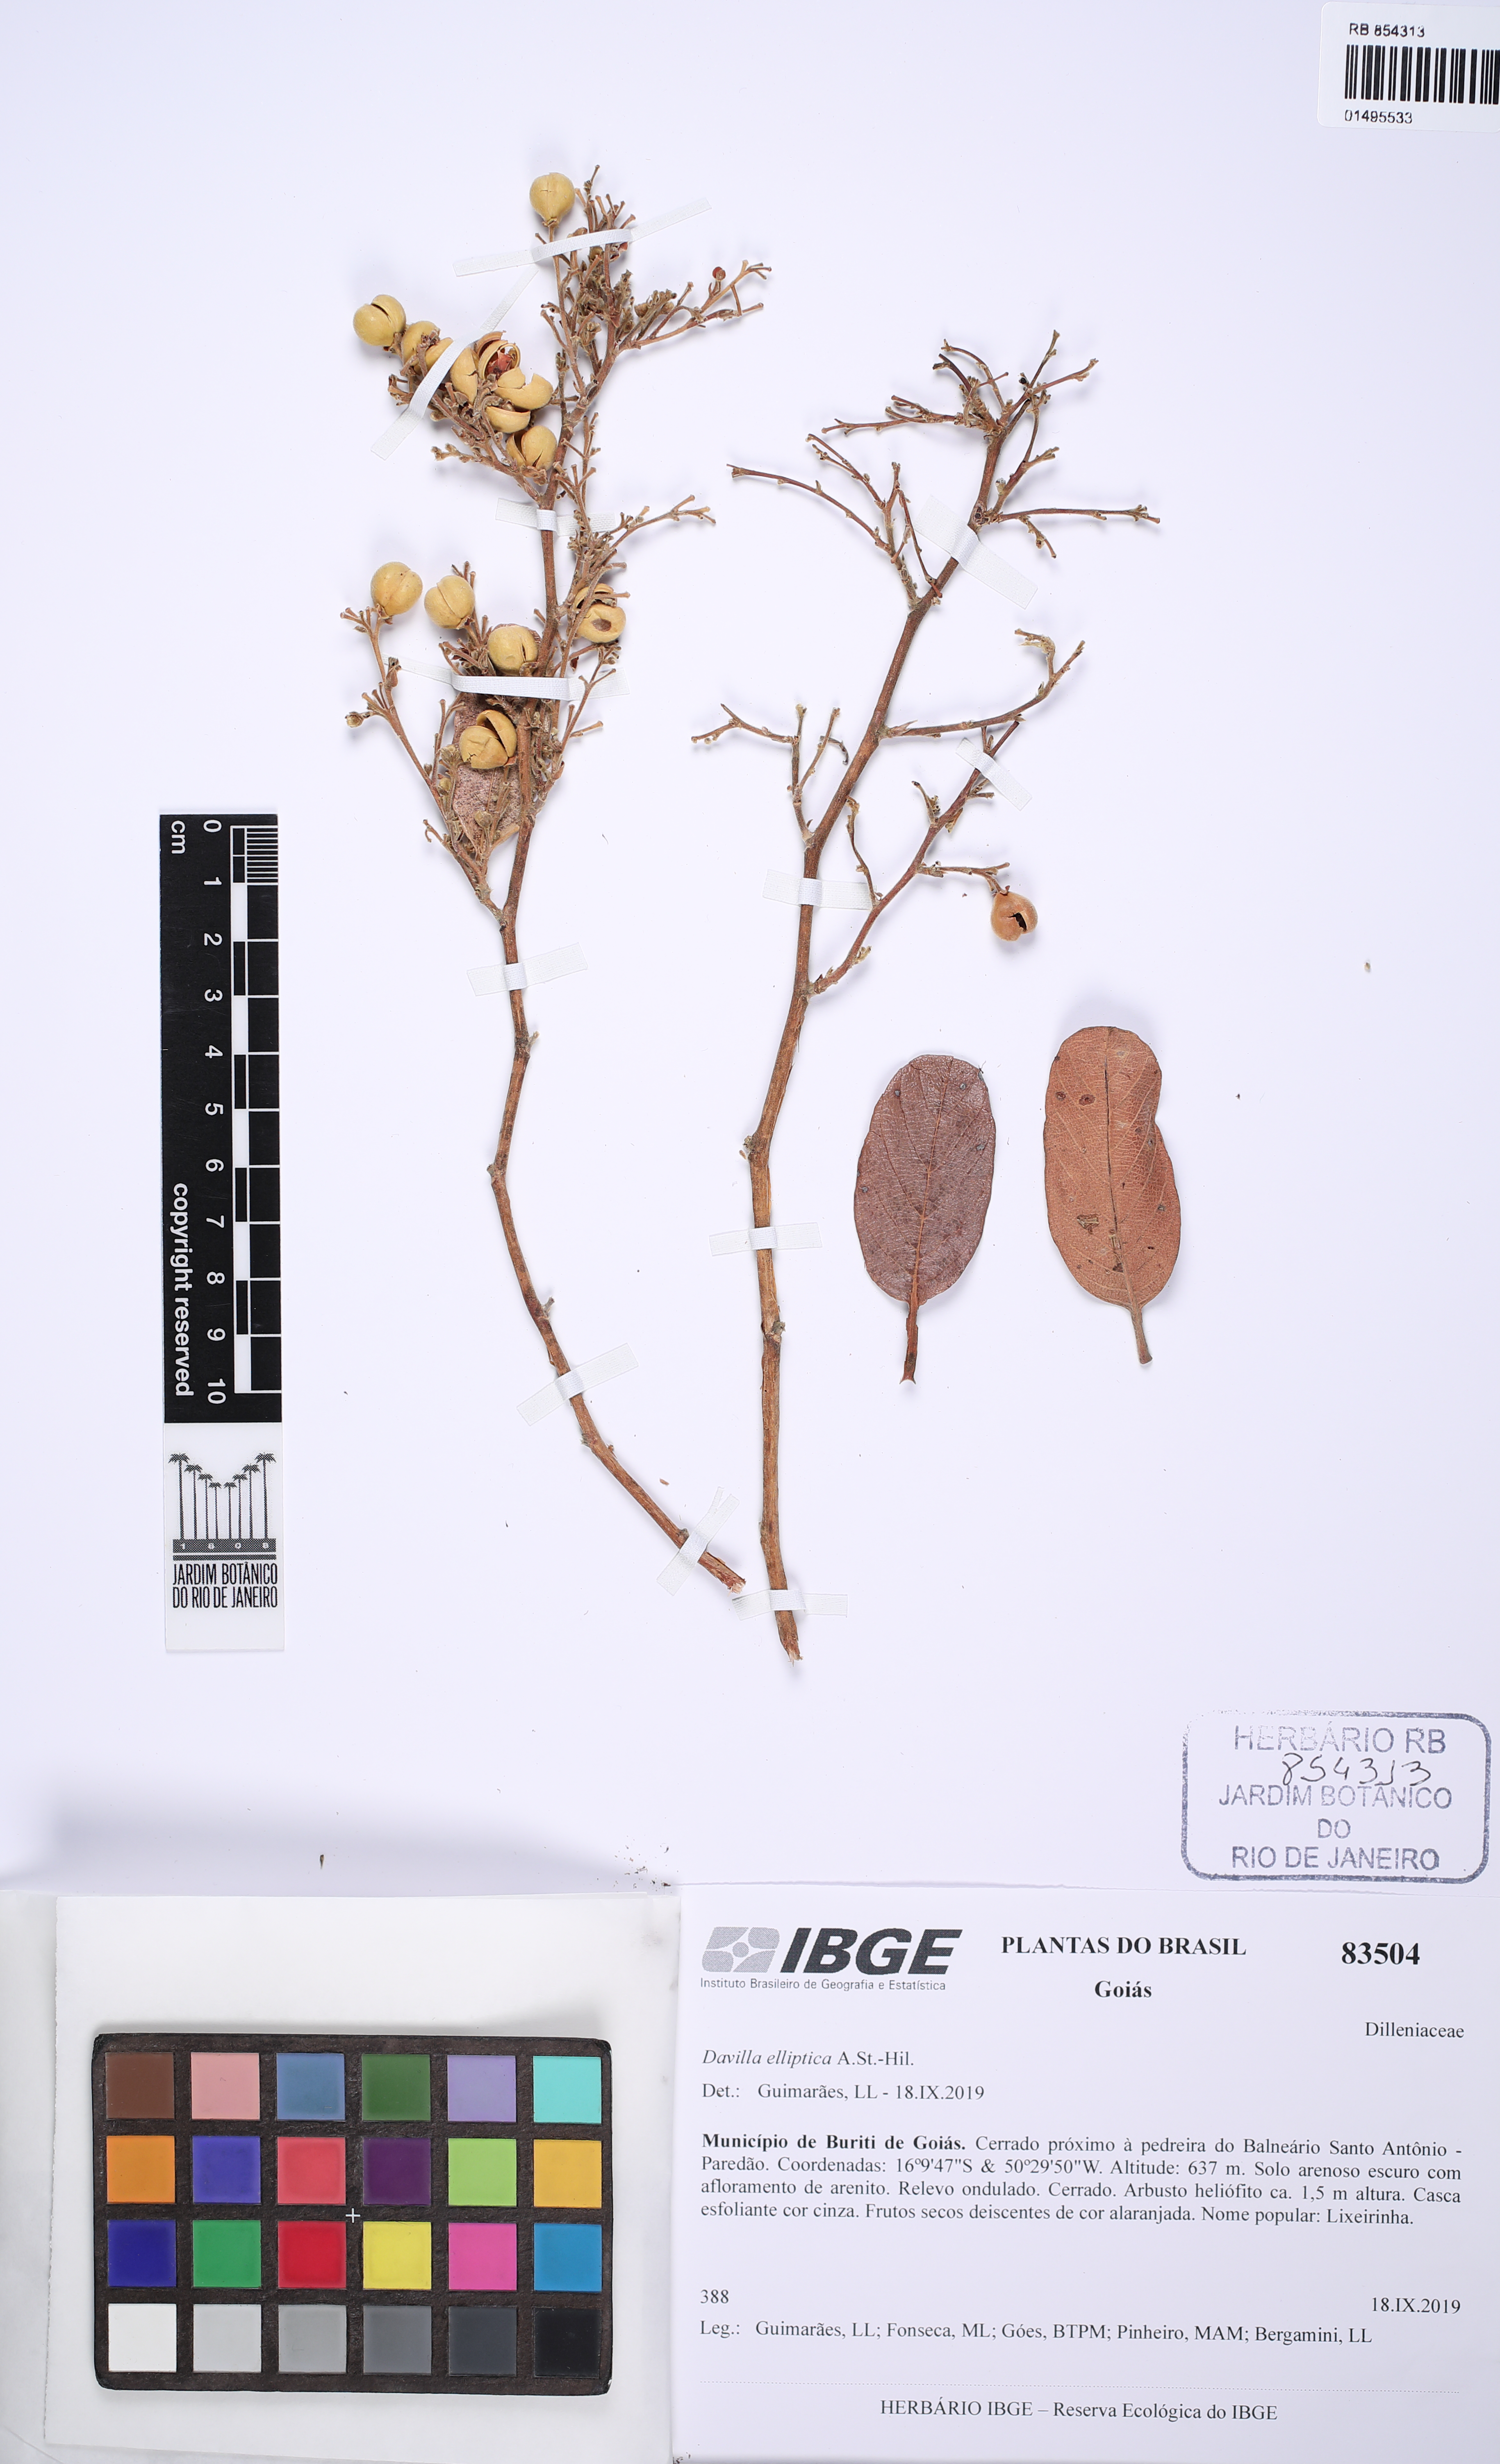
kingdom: Plantae
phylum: Tracheophyta
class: Magnoliopsida
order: Dilleniales
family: Dilleniaceae
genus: Davilla
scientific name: Davilla elliptica
